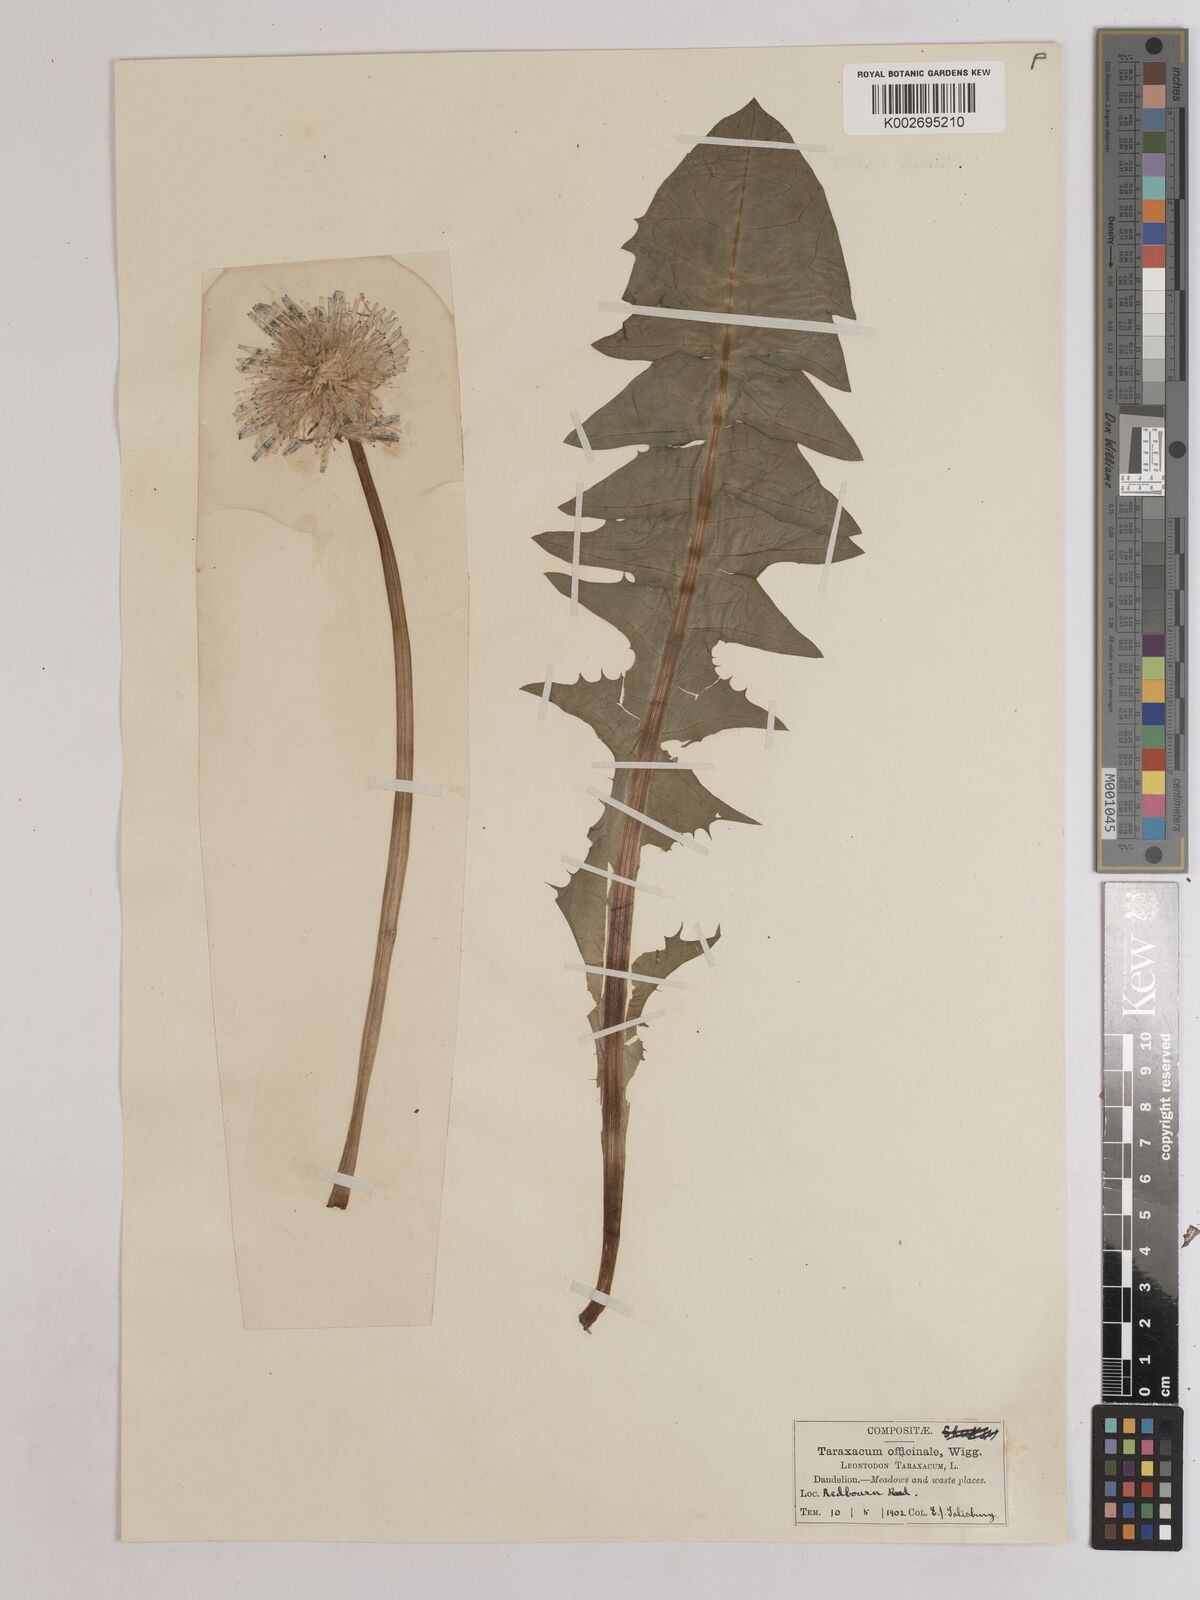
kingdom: Plantae
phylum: Tracheophyta
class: Magnoliopsida
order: Asterales
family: Asteraceae
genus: Taraxacum
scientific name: Taraxacum officinale
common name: Common dandelion
